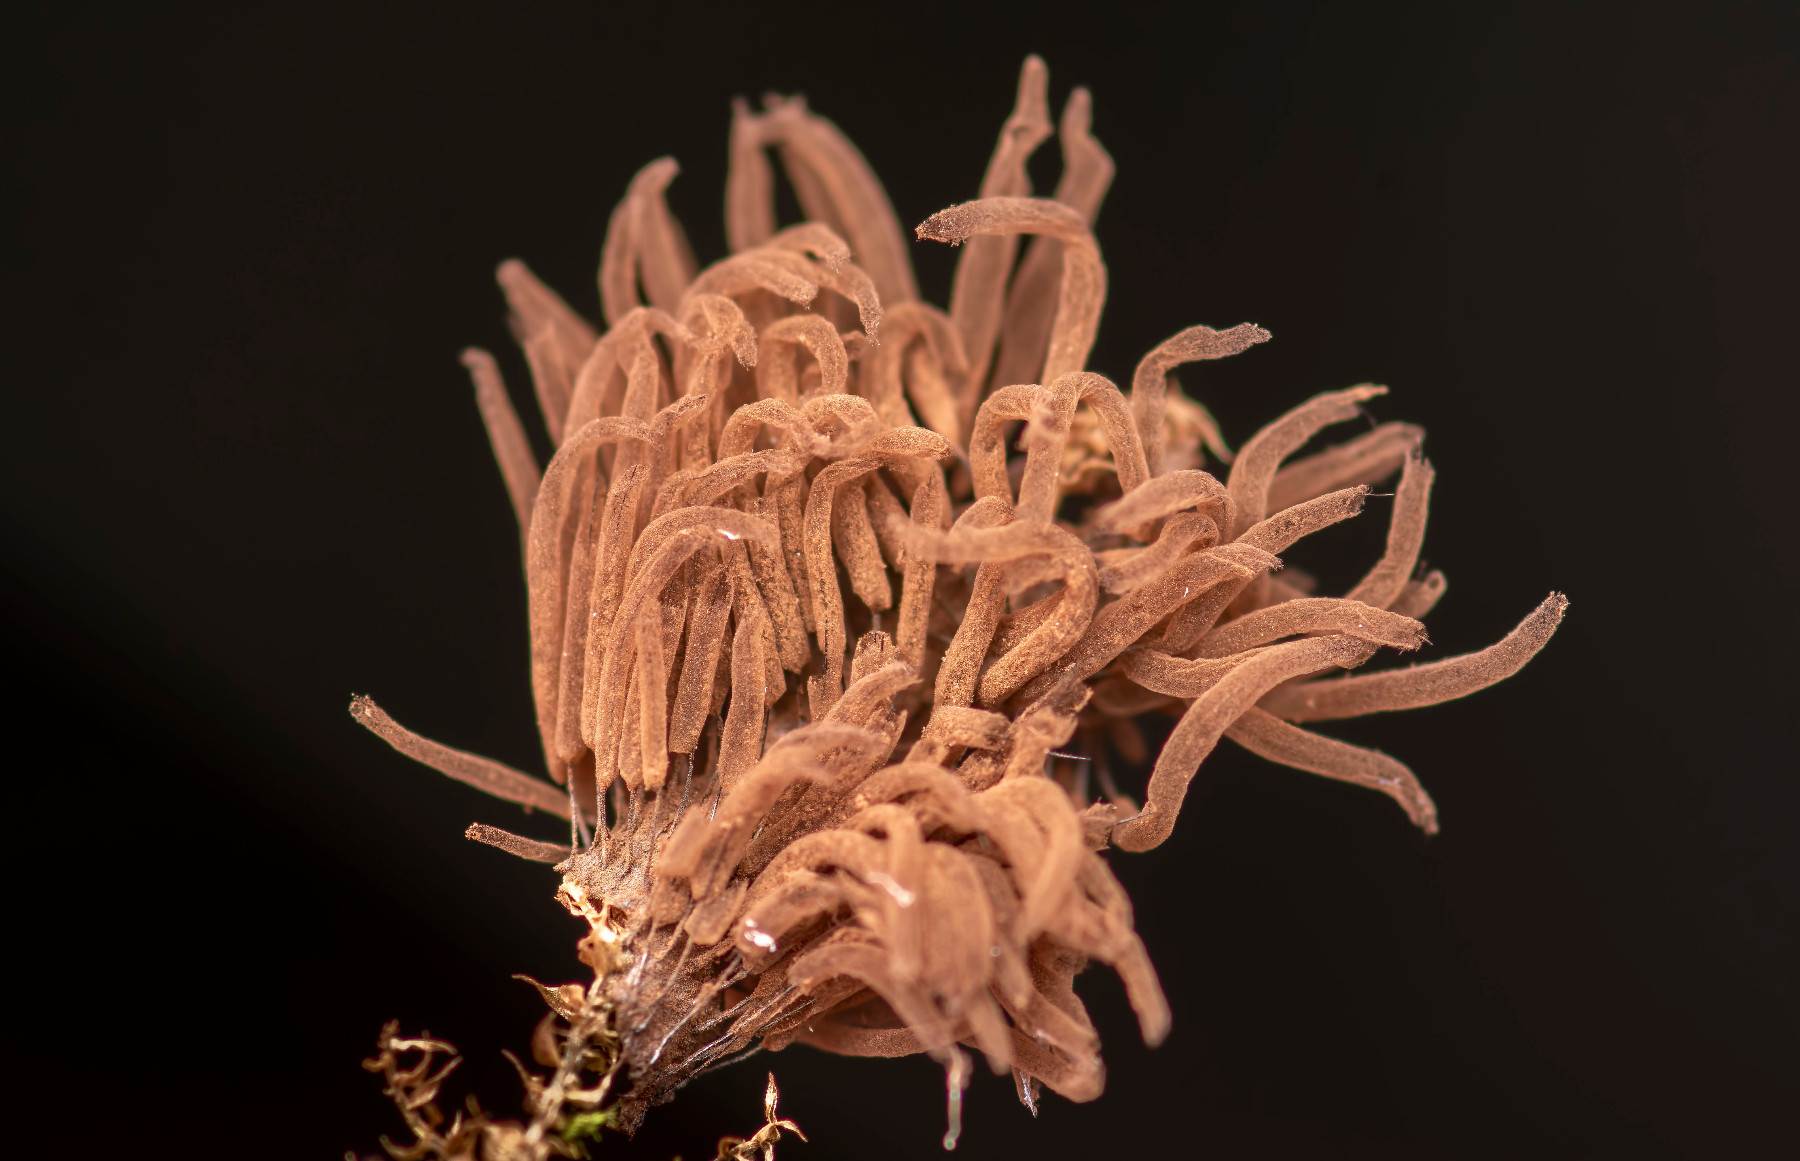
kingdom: Protozoa
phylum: Mycetozoa
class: Myxomycetes
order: Stemonitidales
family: Stemonitidaceae
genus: Stemonitis
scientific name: Stemonitis herbatica
